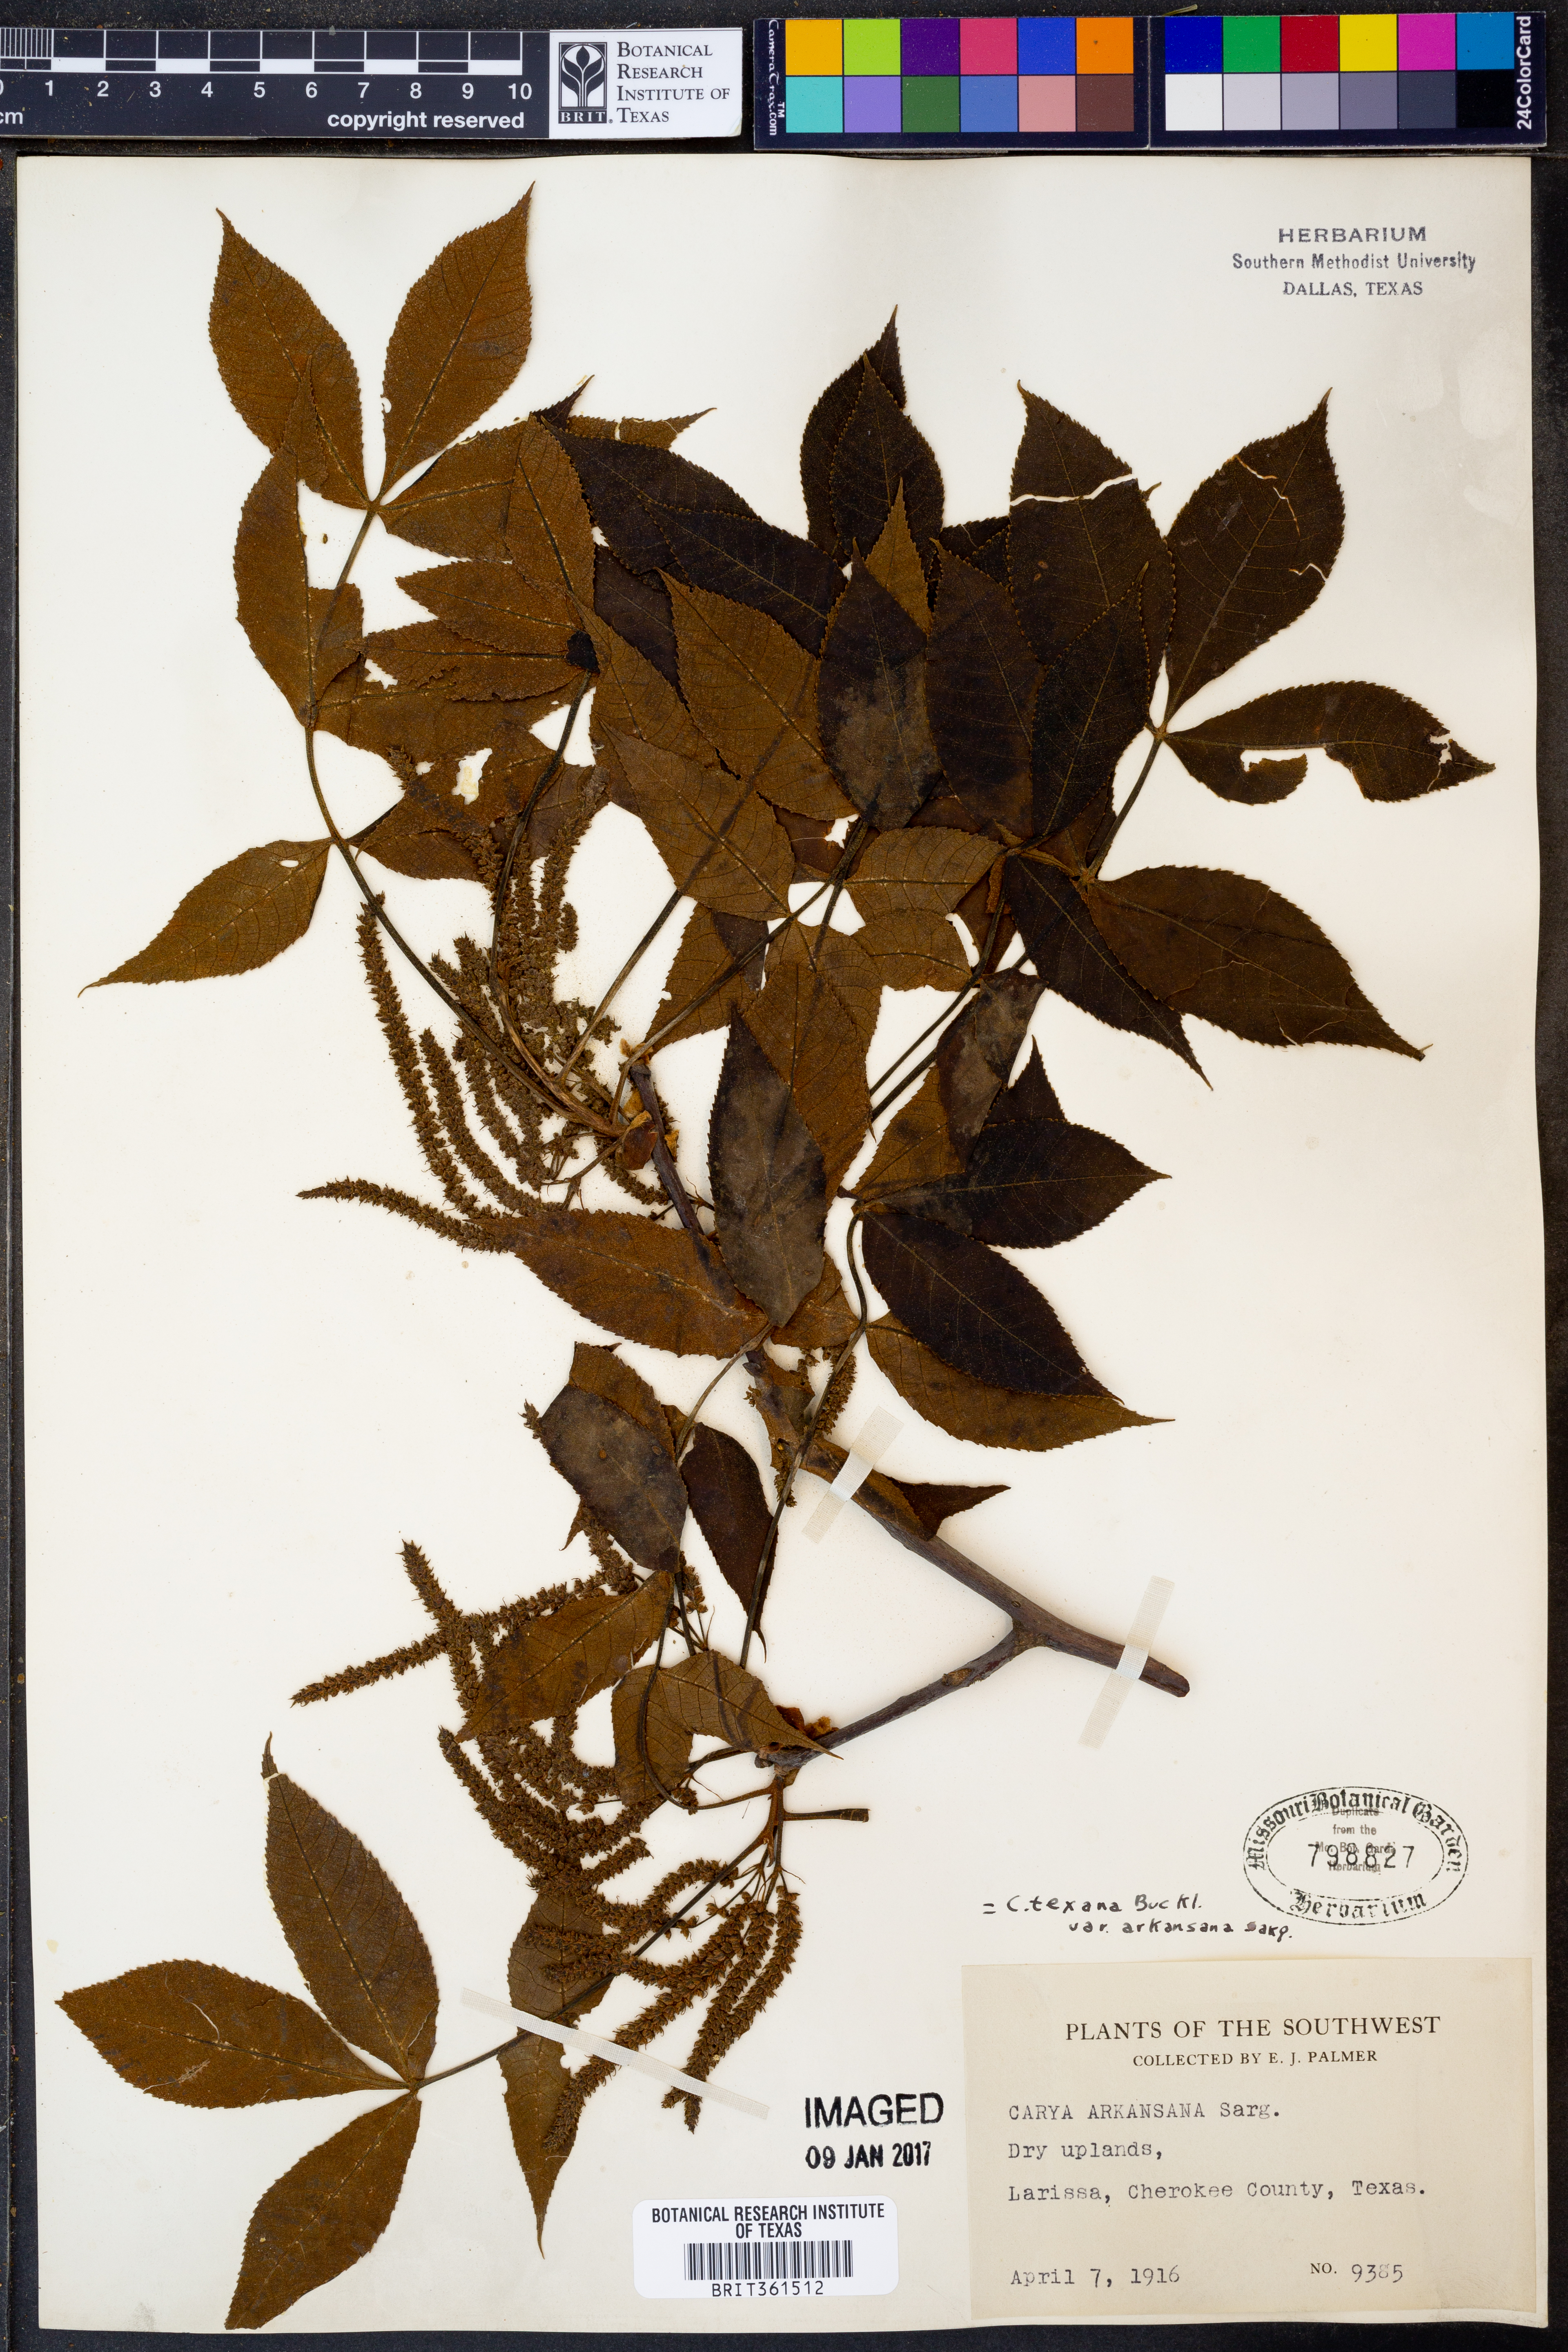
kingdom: Plantae
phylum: Tracheophyta
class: Magnoliopsida
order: Fagales
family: Juglandaceae
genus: Carya
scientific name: Carya texana
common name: Black hickory
